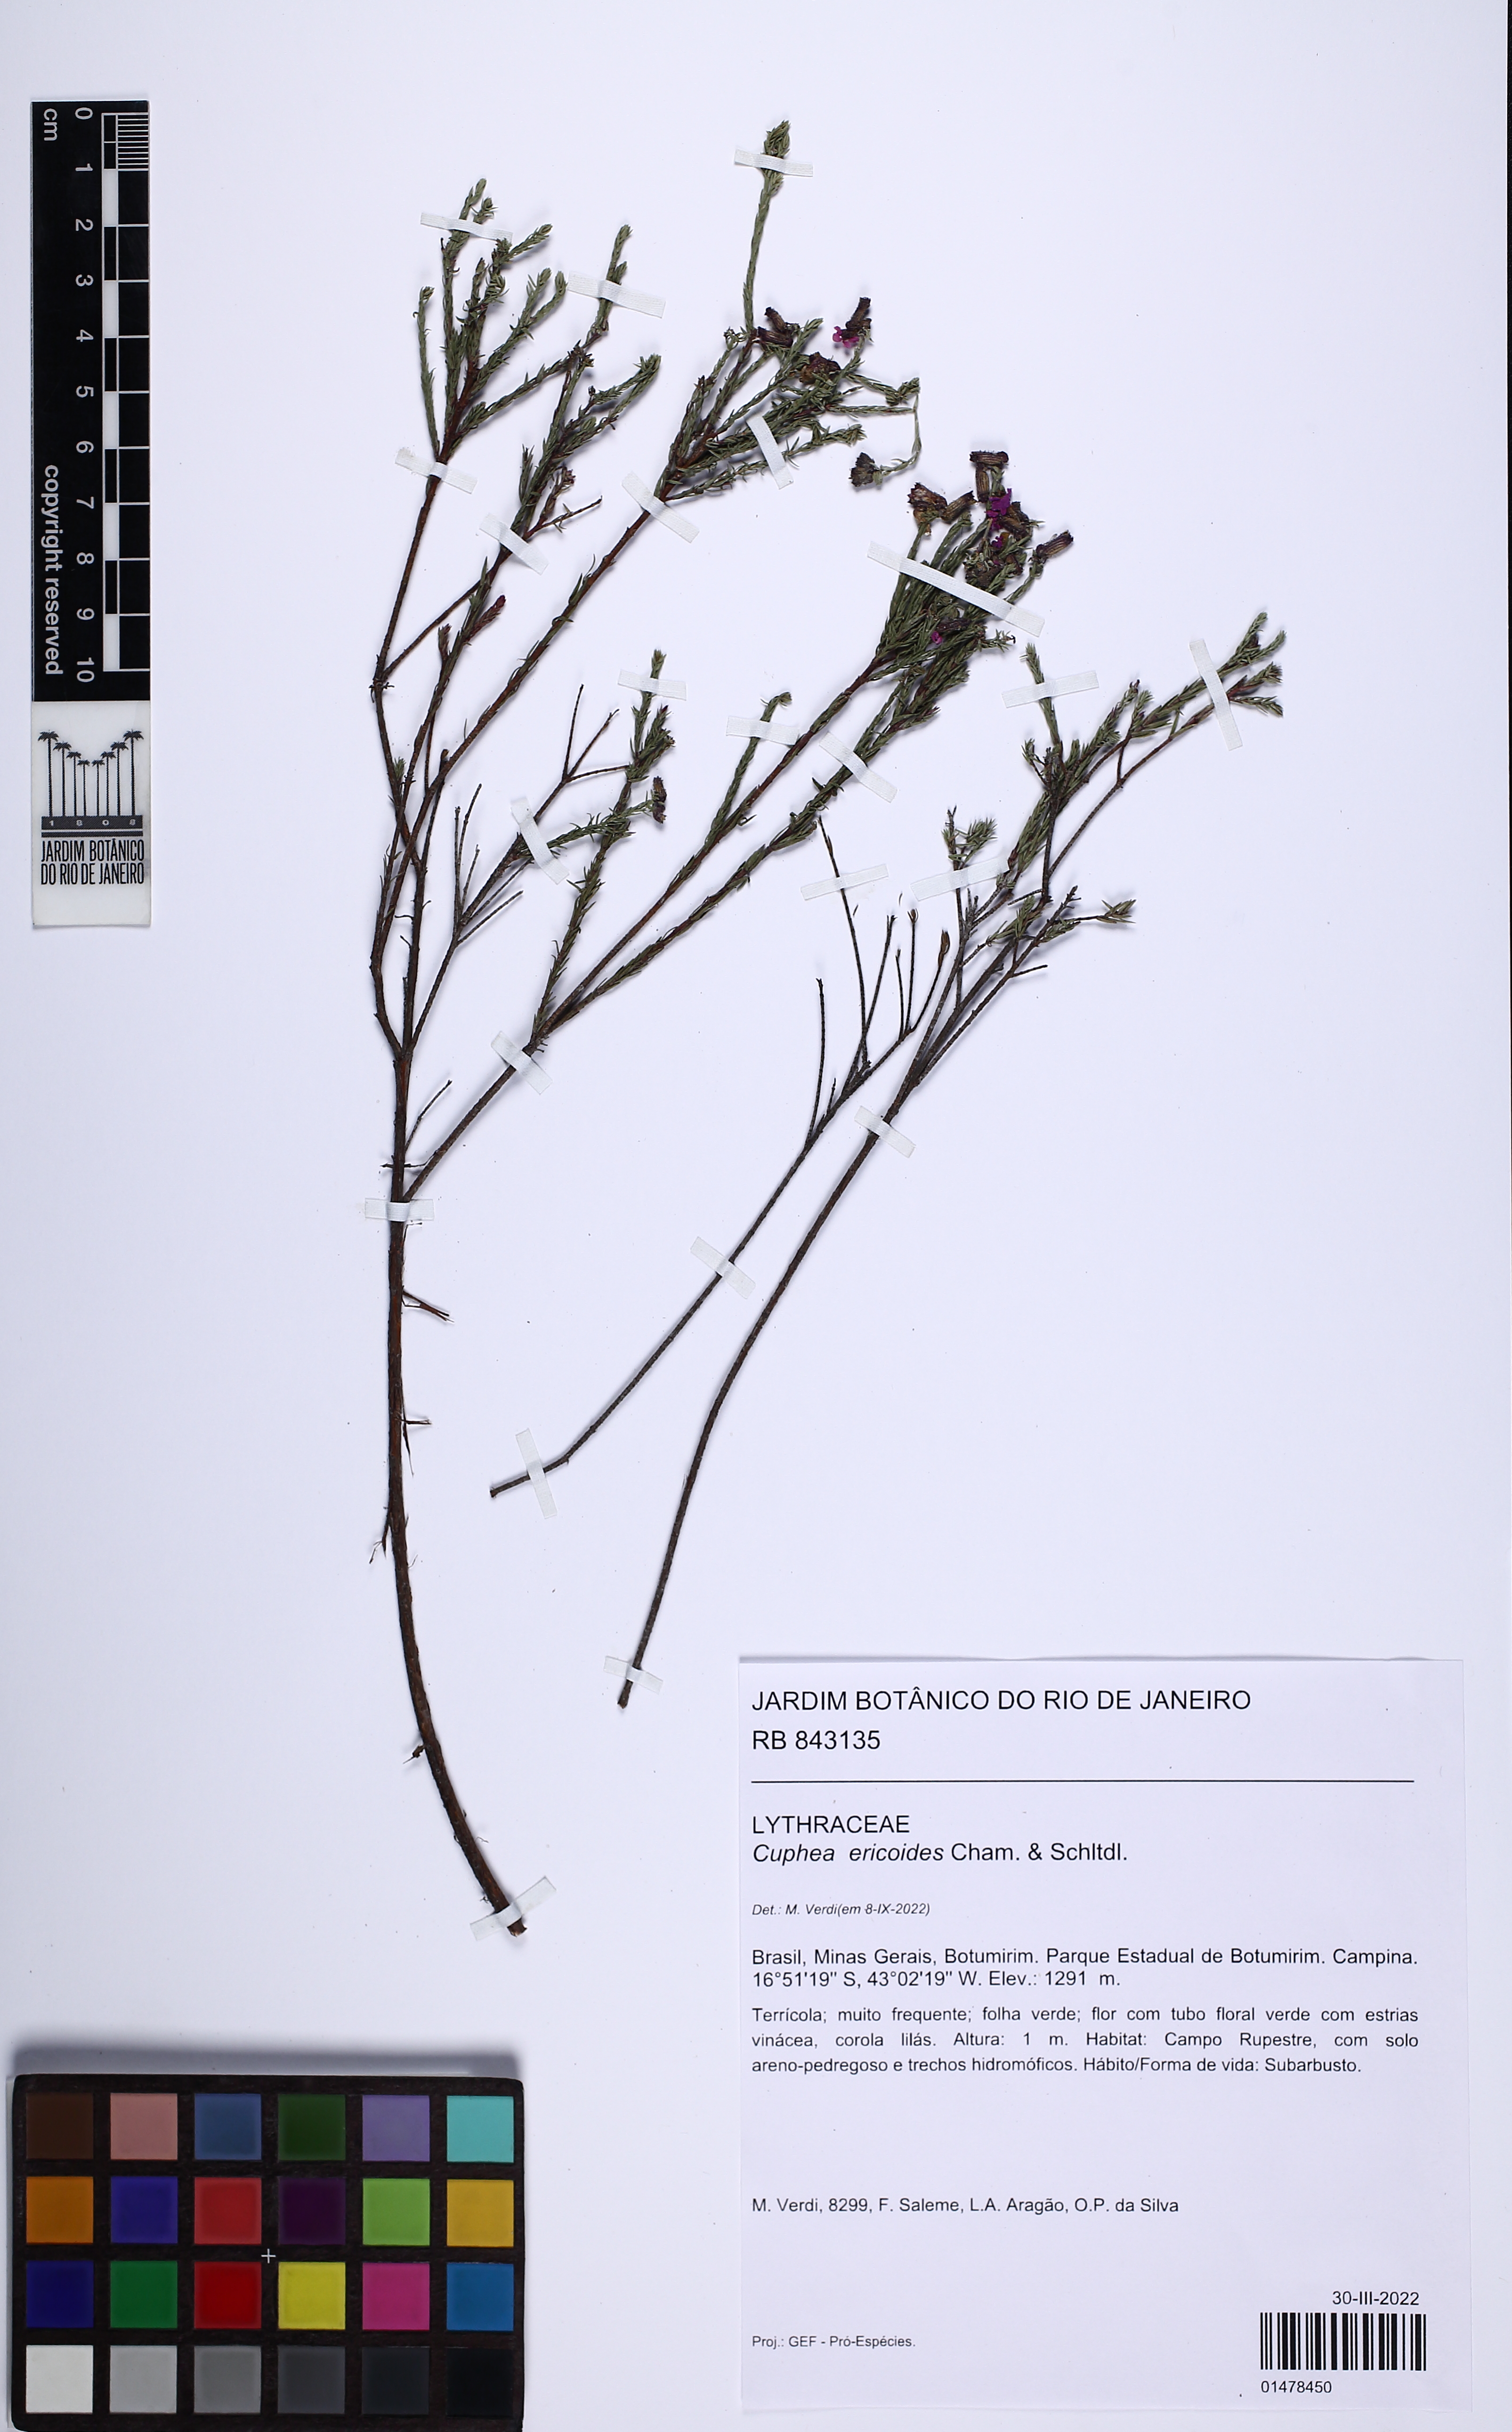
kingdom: Plantae
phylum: Tracheophyta
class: Magnoliopsida
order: Myrtales
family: Lythraceae
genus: Cuphea
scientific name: Cuphea ericoides
